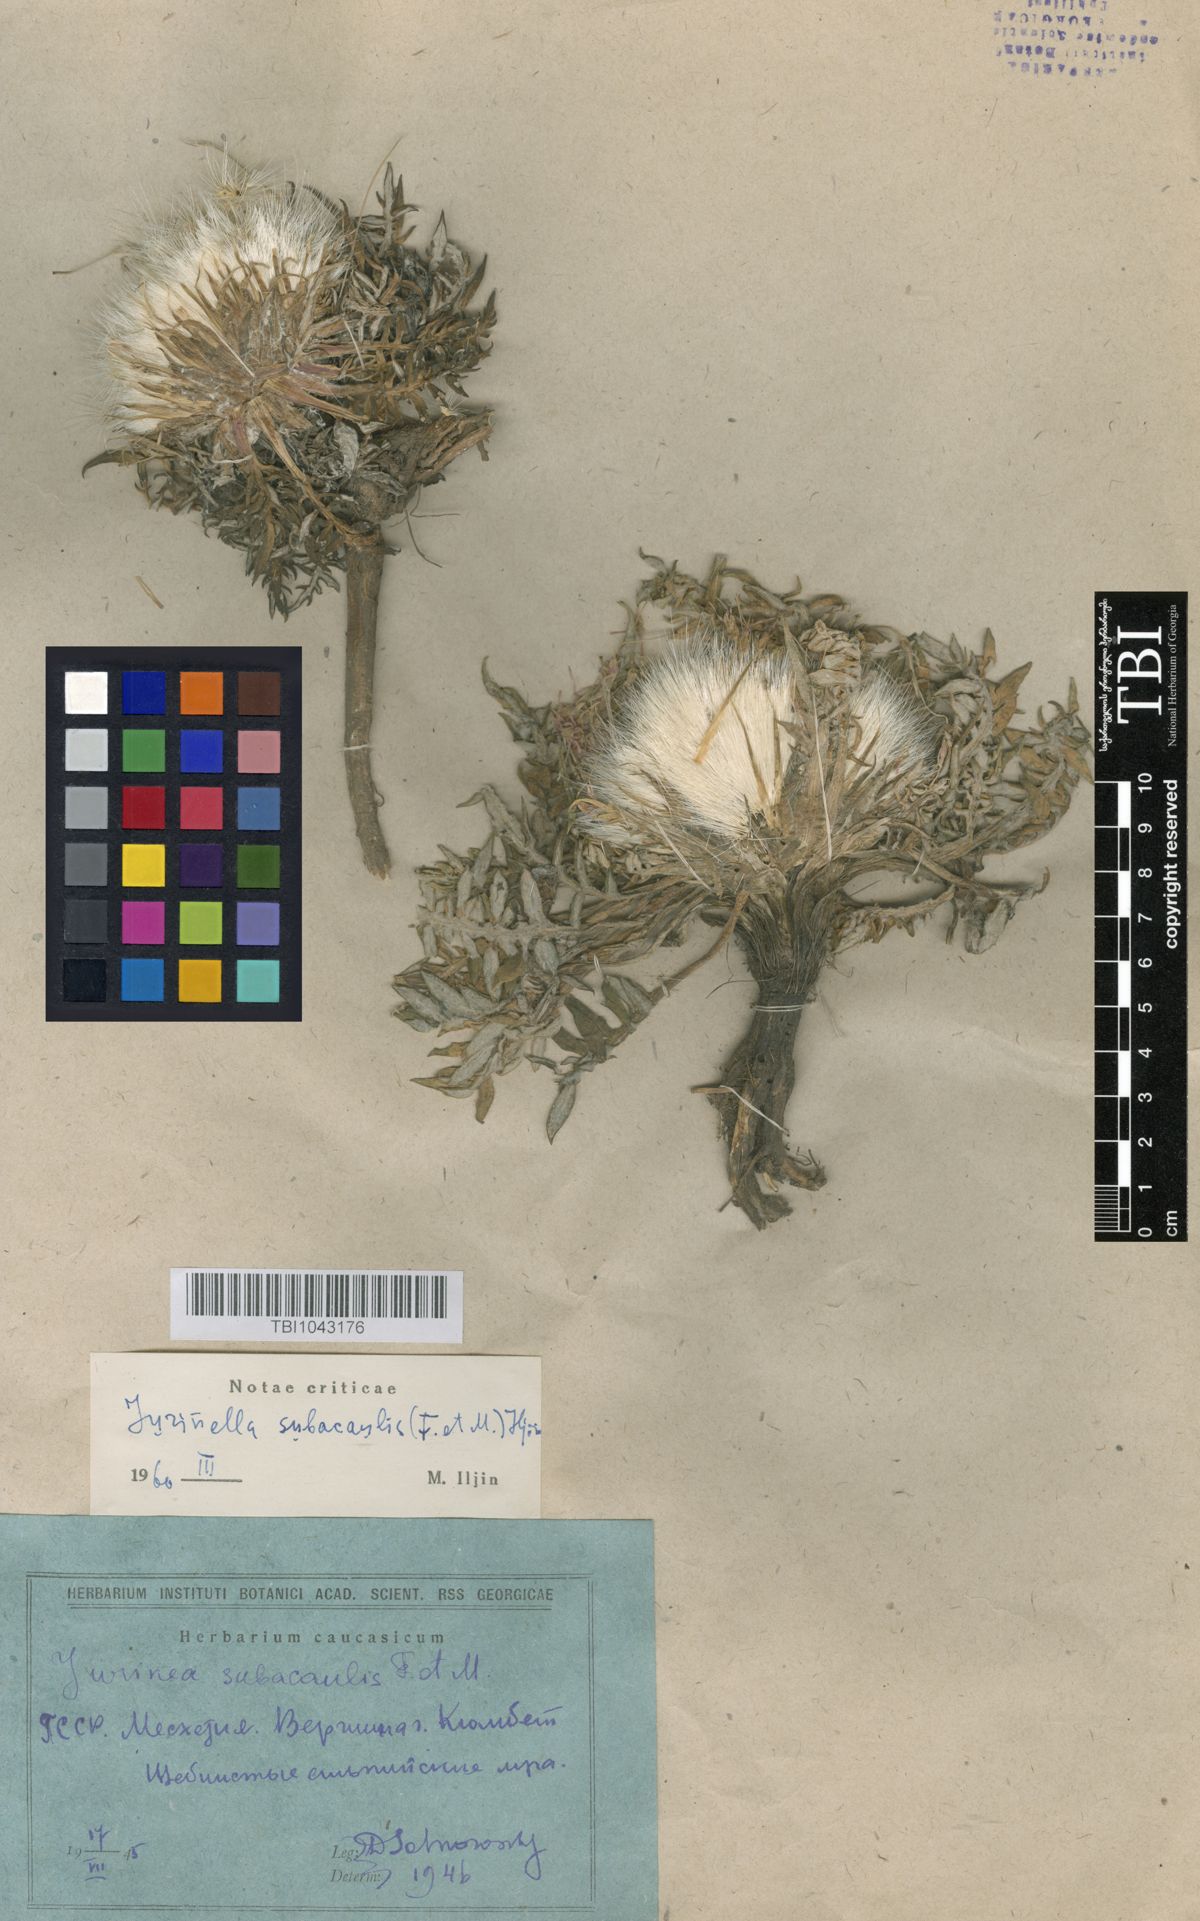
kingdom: Plantae
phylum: Tracheophyta
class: Magnoliopsida
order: Asterales
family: Asteraceae
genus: Jurinea
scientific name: Jurinea moschus
